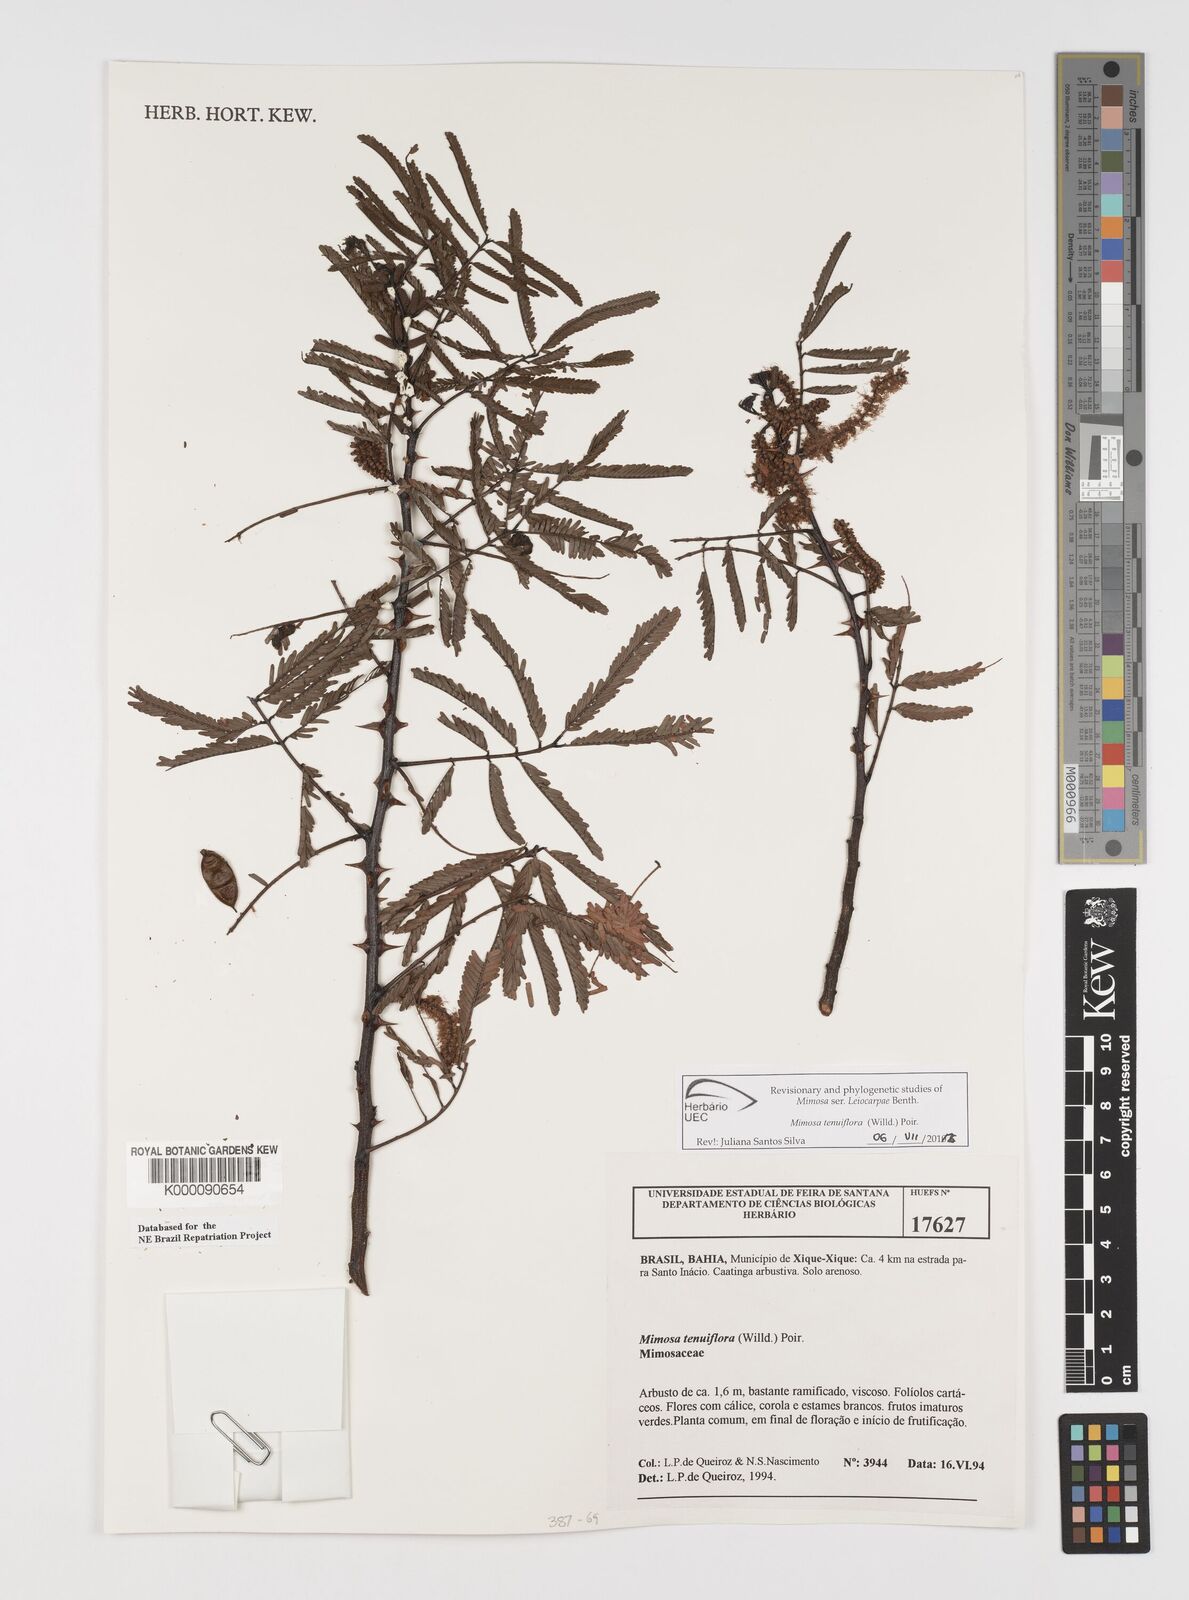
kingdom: Plantae
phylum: Tracheophyta
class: Magnoliopsida
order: Fabales
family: Fabaceae
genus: Mimosa
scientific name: Mimosa tenuiflora
